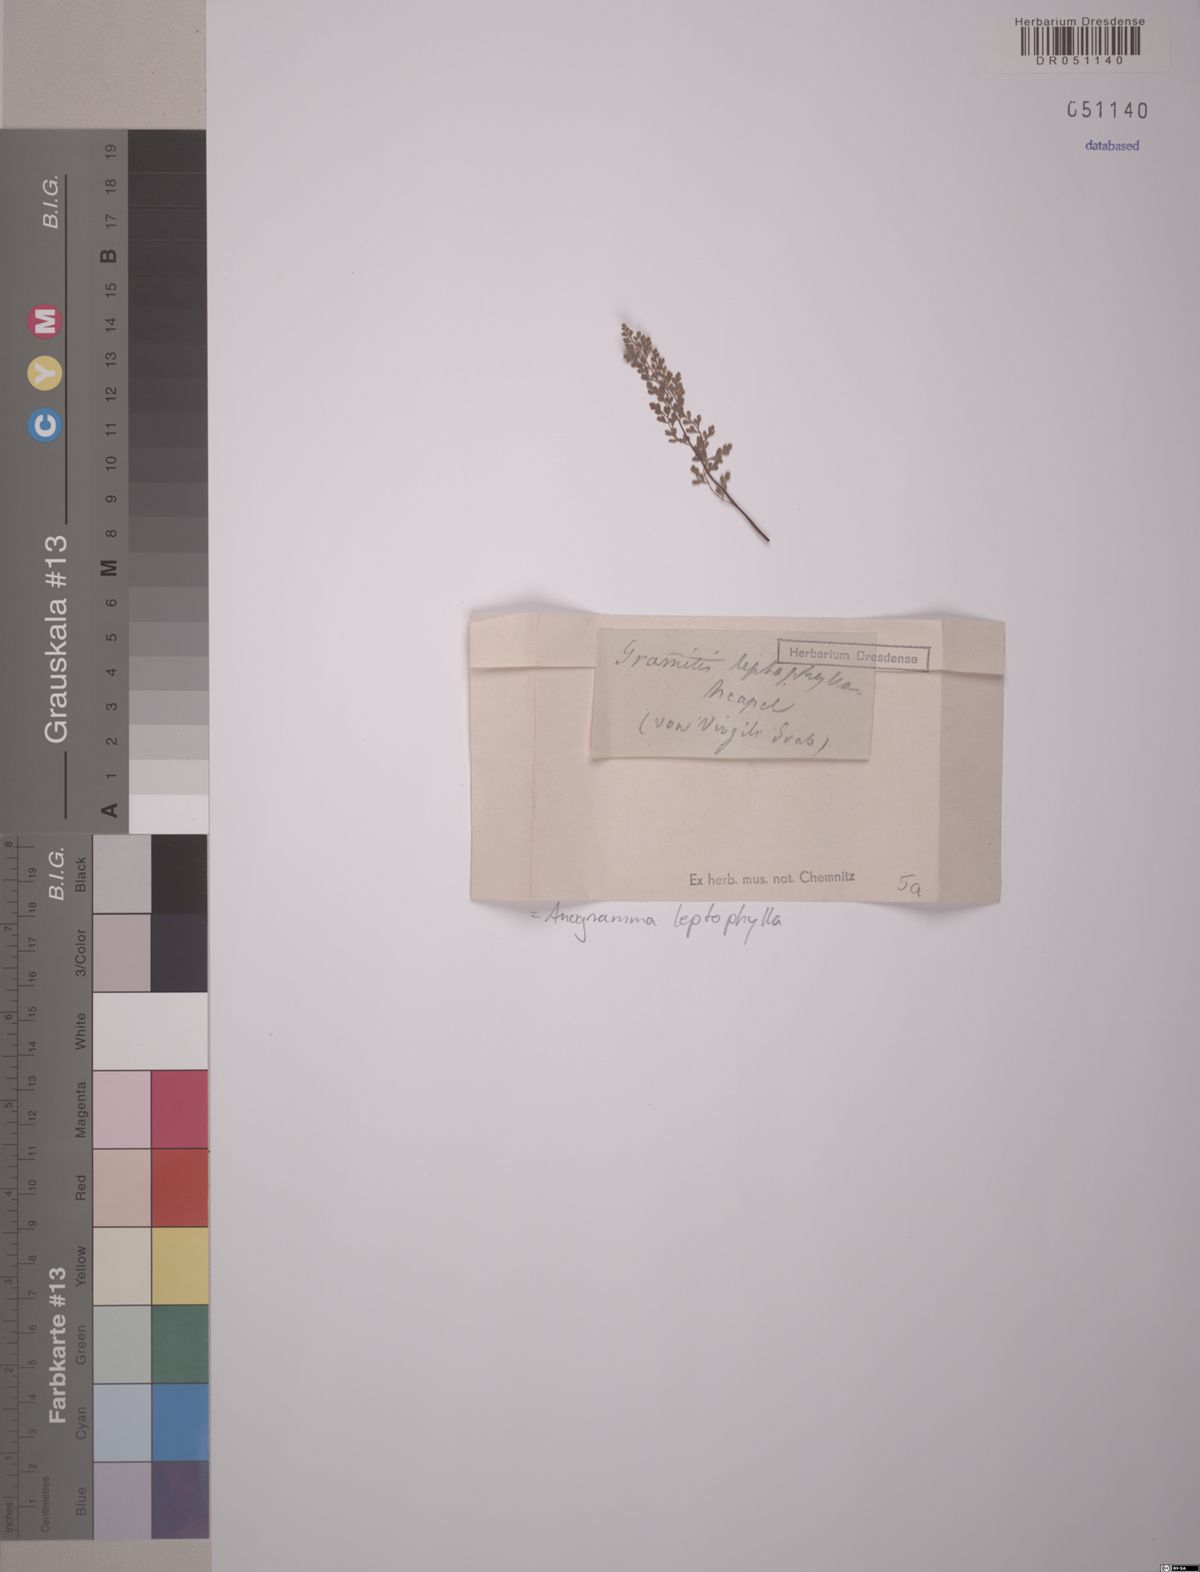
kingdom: Plantae
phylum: Tracheophyta
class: Polypodiopsida
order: Polypodiales
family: Pteridaceae
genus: Anogramma
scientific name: Anogramma leptophylla
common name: Jersey fern
